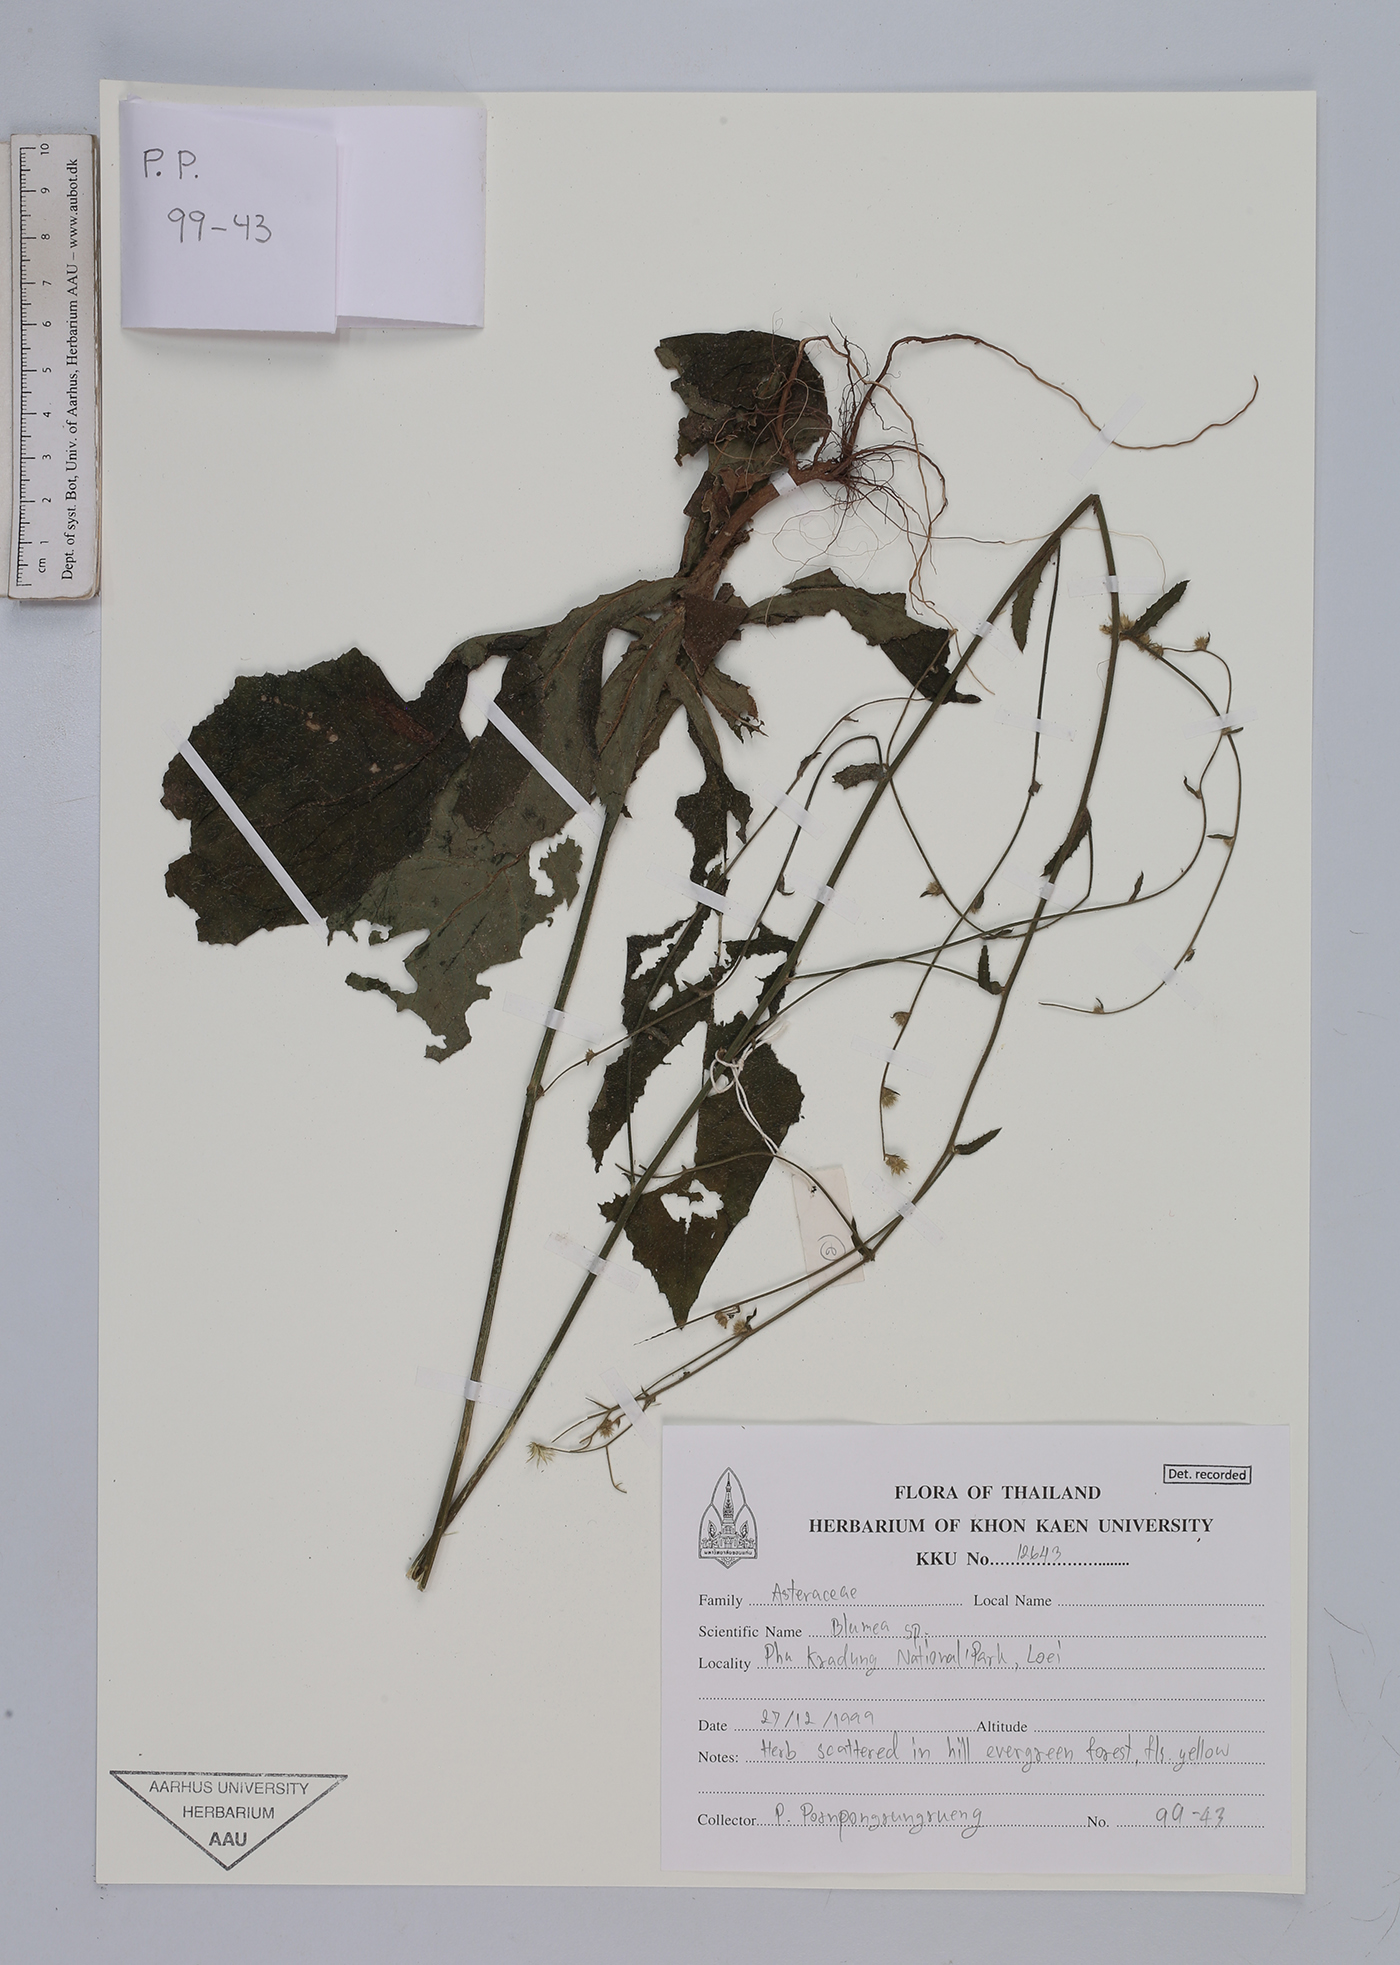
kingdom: Plantae
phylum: Tracheophyta
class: Magnoliopsida
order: Asterales
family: Asteraceae
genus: Blumea
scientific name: Blumea
